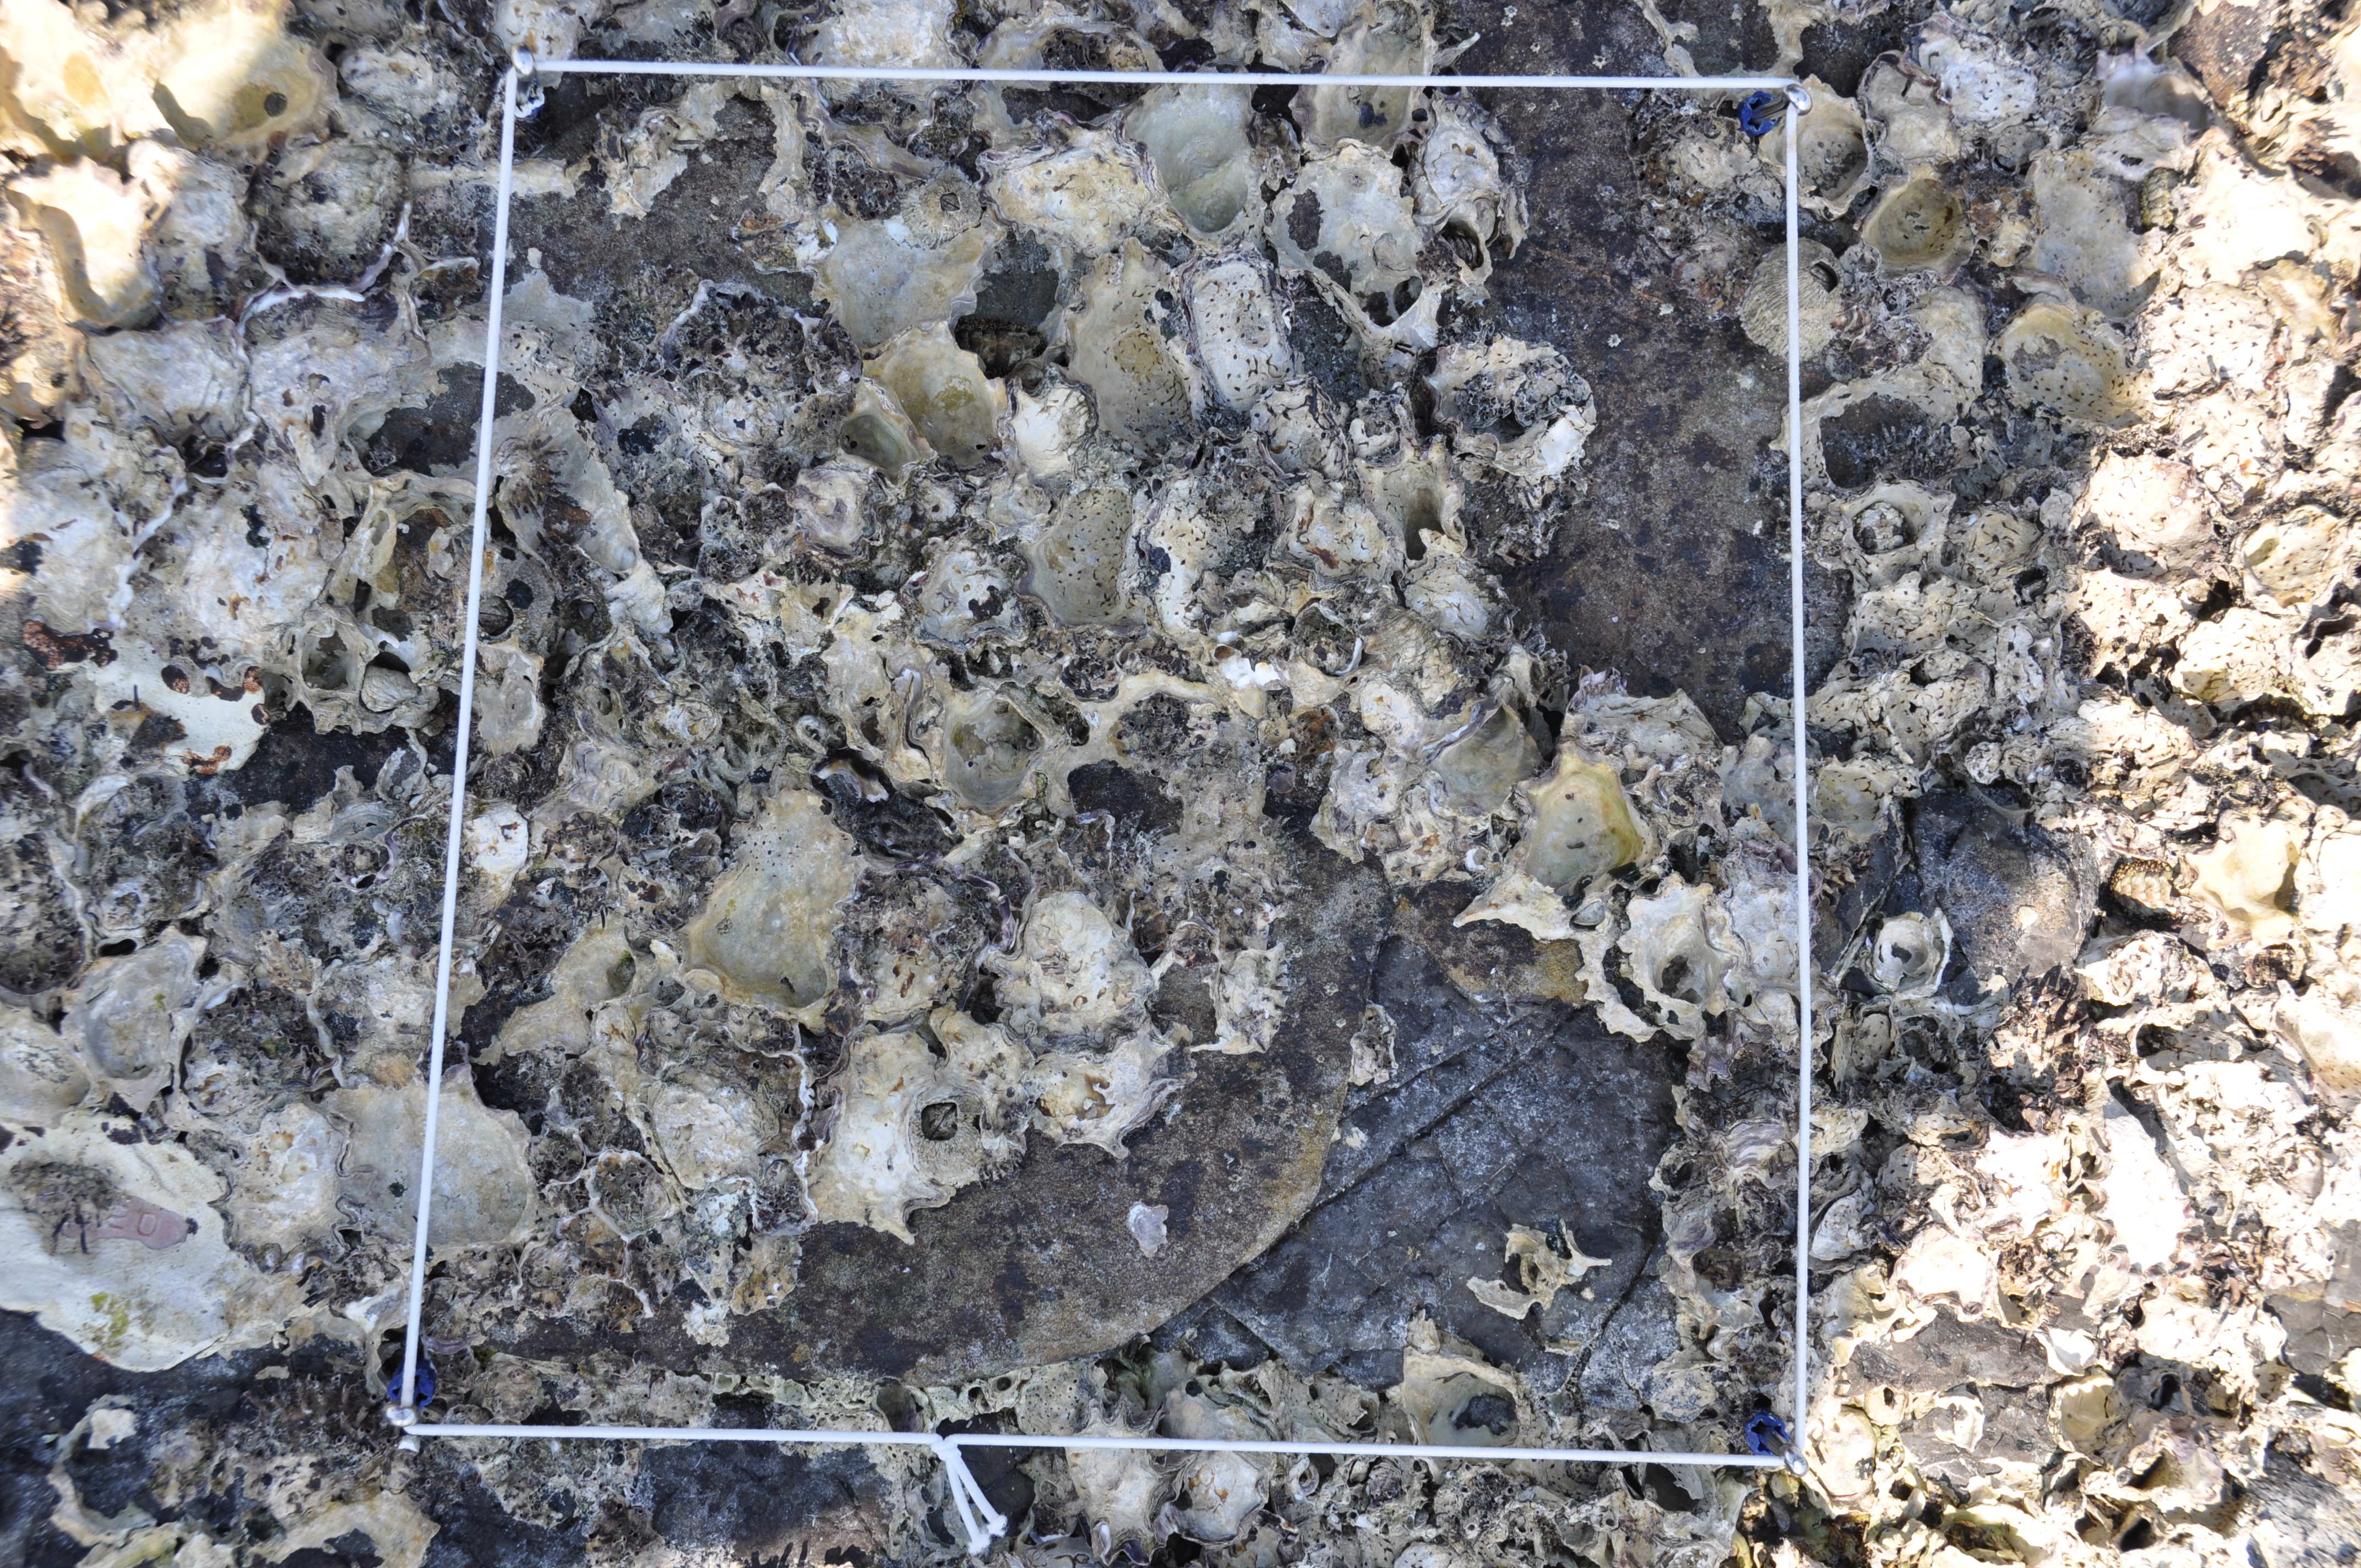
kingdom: Animalia
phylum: Arthropoda
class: Maxillopoda
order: Sessilia
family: Chthamalidae
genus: Chthamalus
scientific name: Chthamalus challengeri
